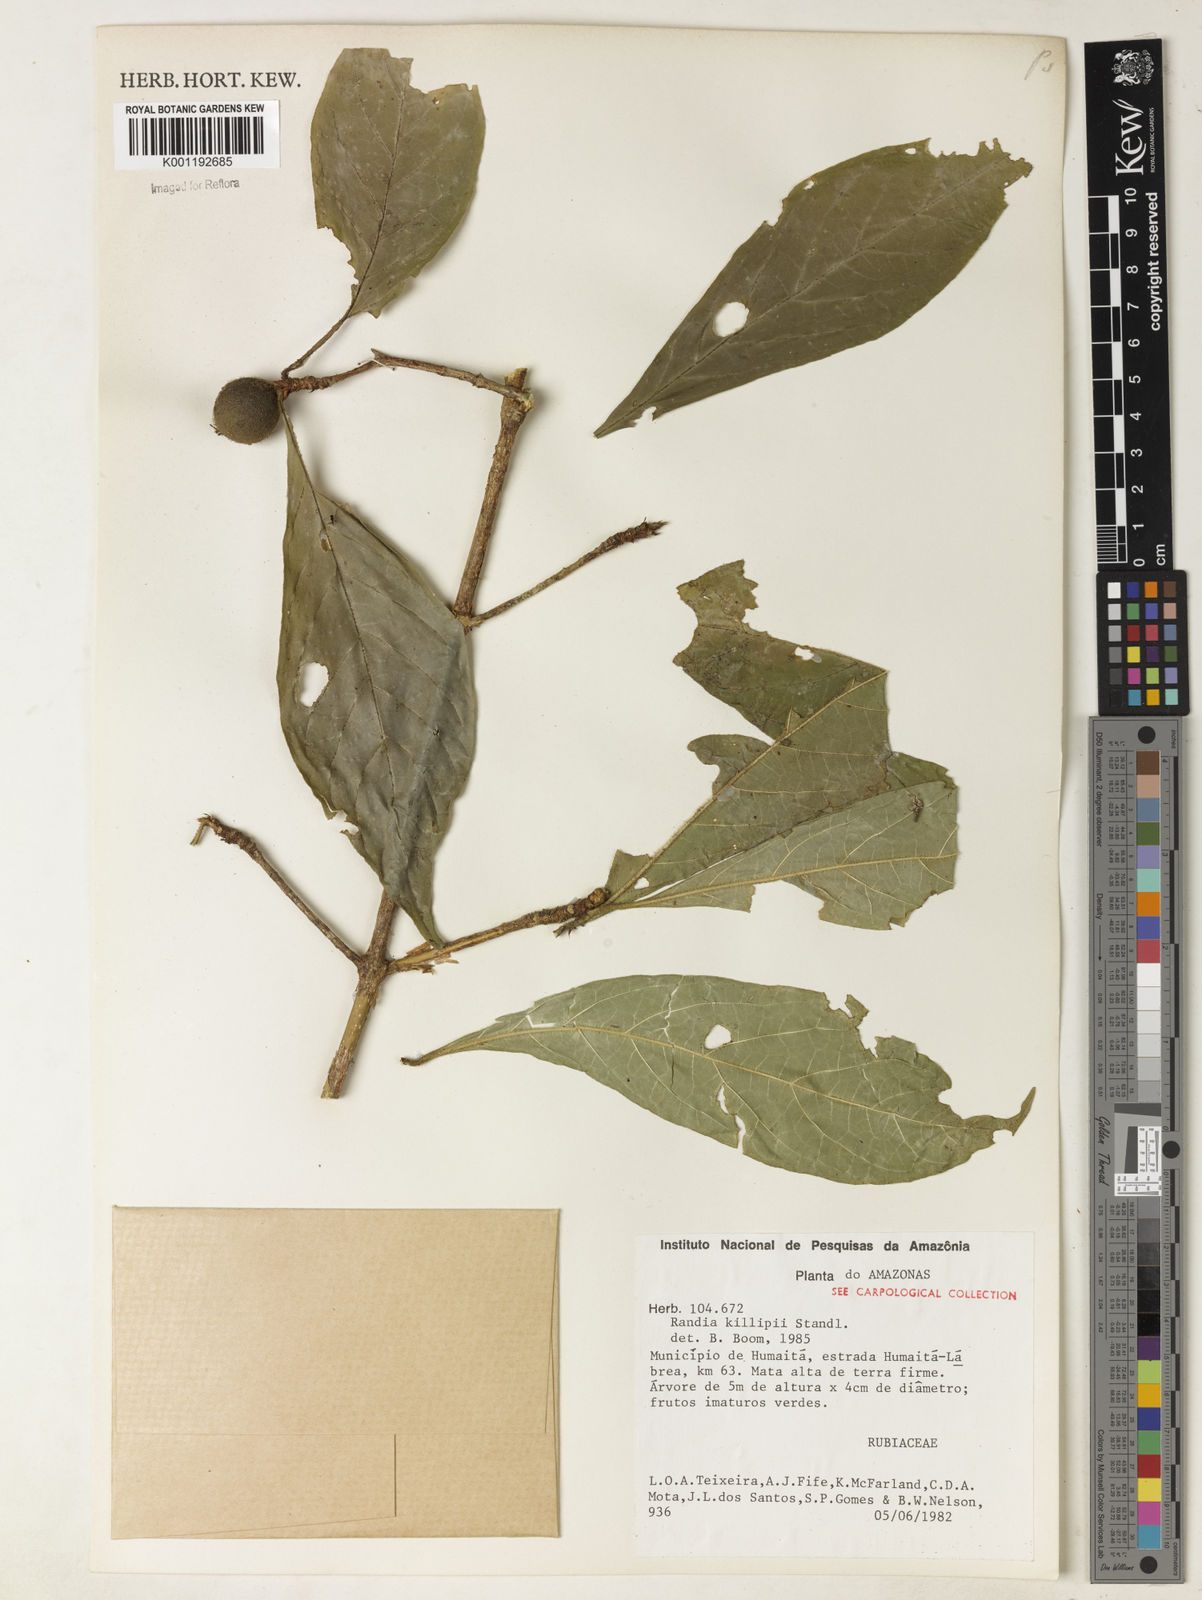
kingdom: Plantae
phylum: Tracheophyta
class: Magnoliopsida
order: Gentianales
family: Rubiaceae
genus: Cordiera
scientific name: Cordiera killipii
